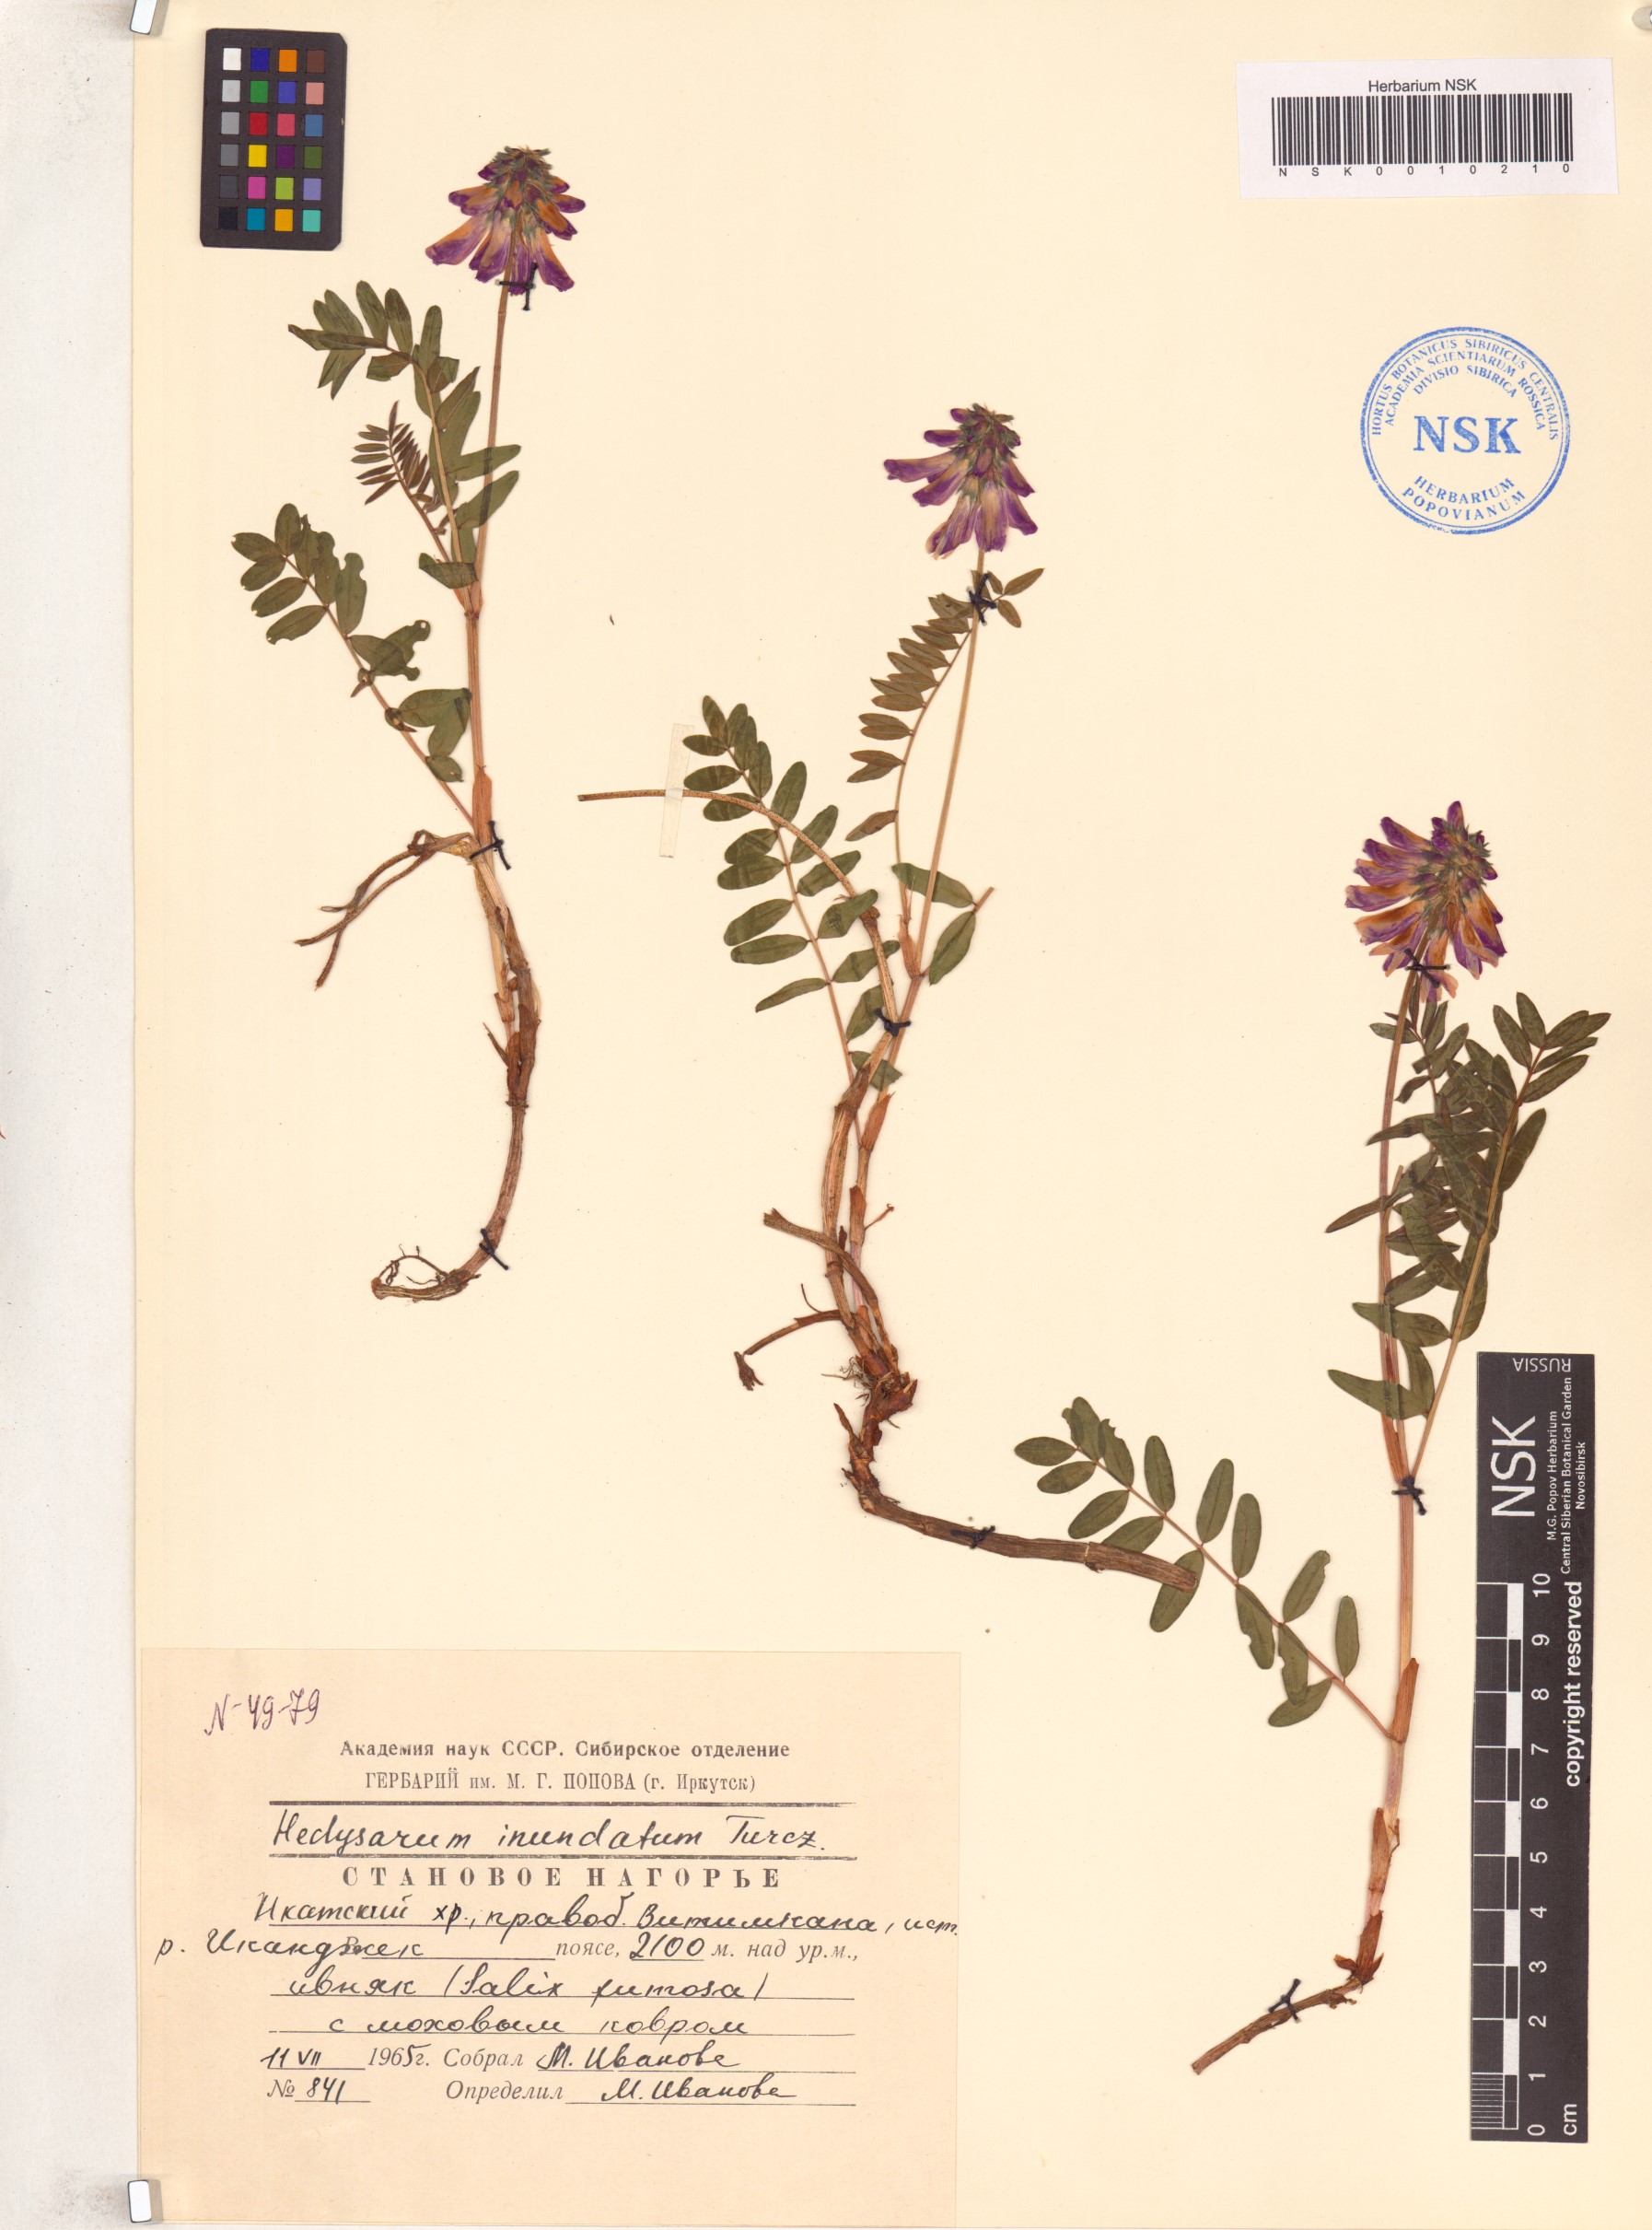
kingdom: Plantae
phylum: Tracheophyta
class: Magnoliopsida
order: Fabales
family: Fabaceae
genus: Hedysarum
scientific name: Hedysarum inundatum
